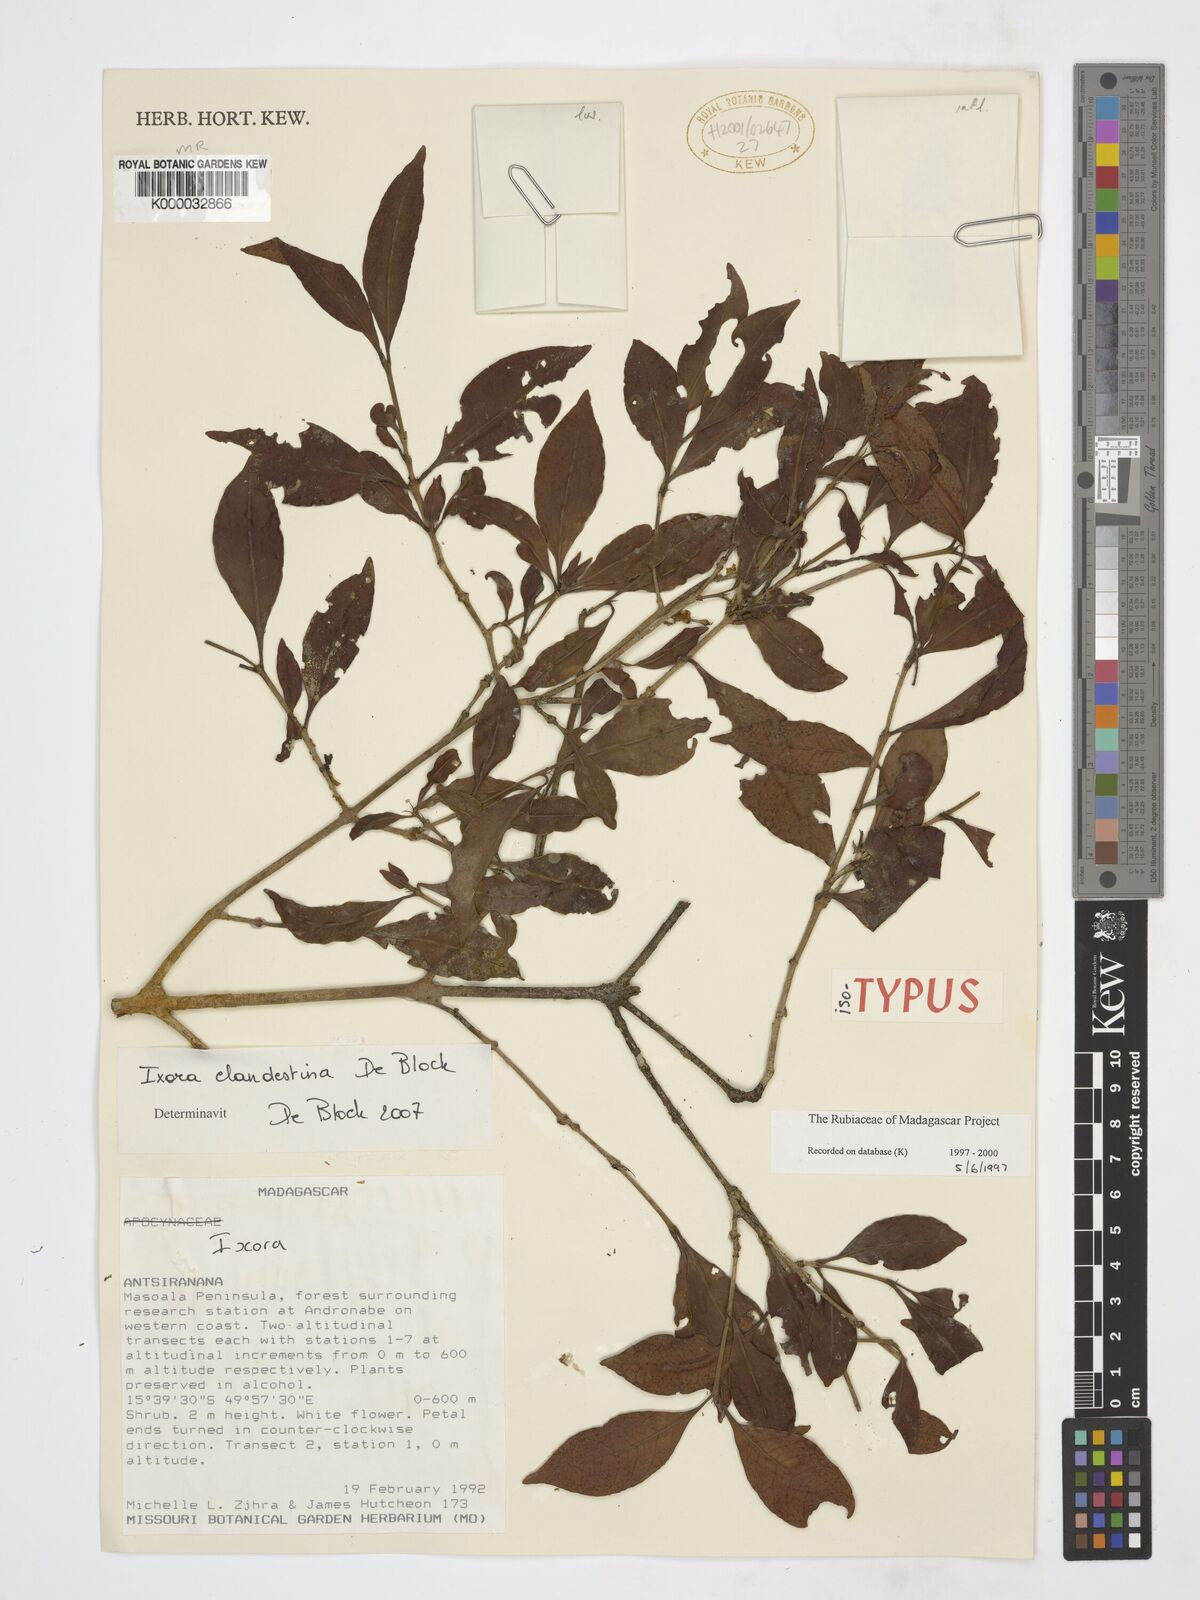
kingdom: Plantae
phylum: Tracheophyta
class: Magnoliopsida
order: Gentianales
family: Rubiaceae
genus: Ixora
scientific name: Ixora clandestina
